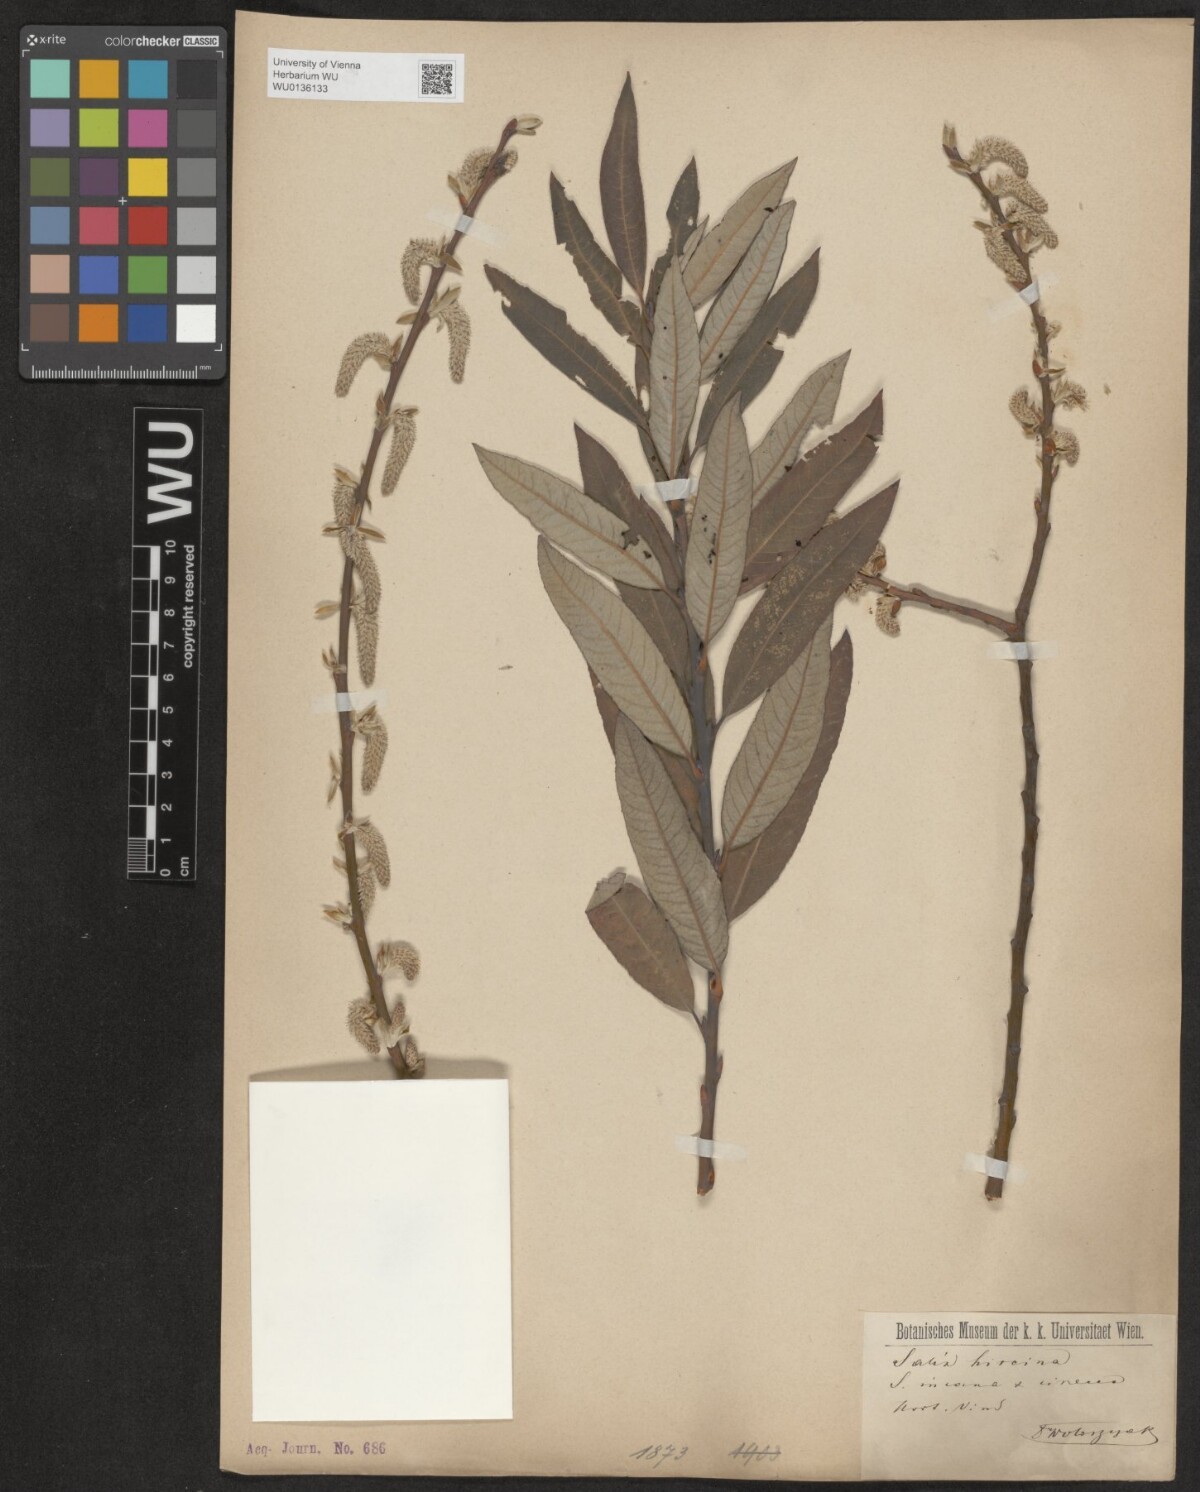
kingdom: Plantae
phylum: Tracheophyta
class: Magnoliopsida
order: Malpighiales
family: Salicaceae
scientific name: Salicaceae
